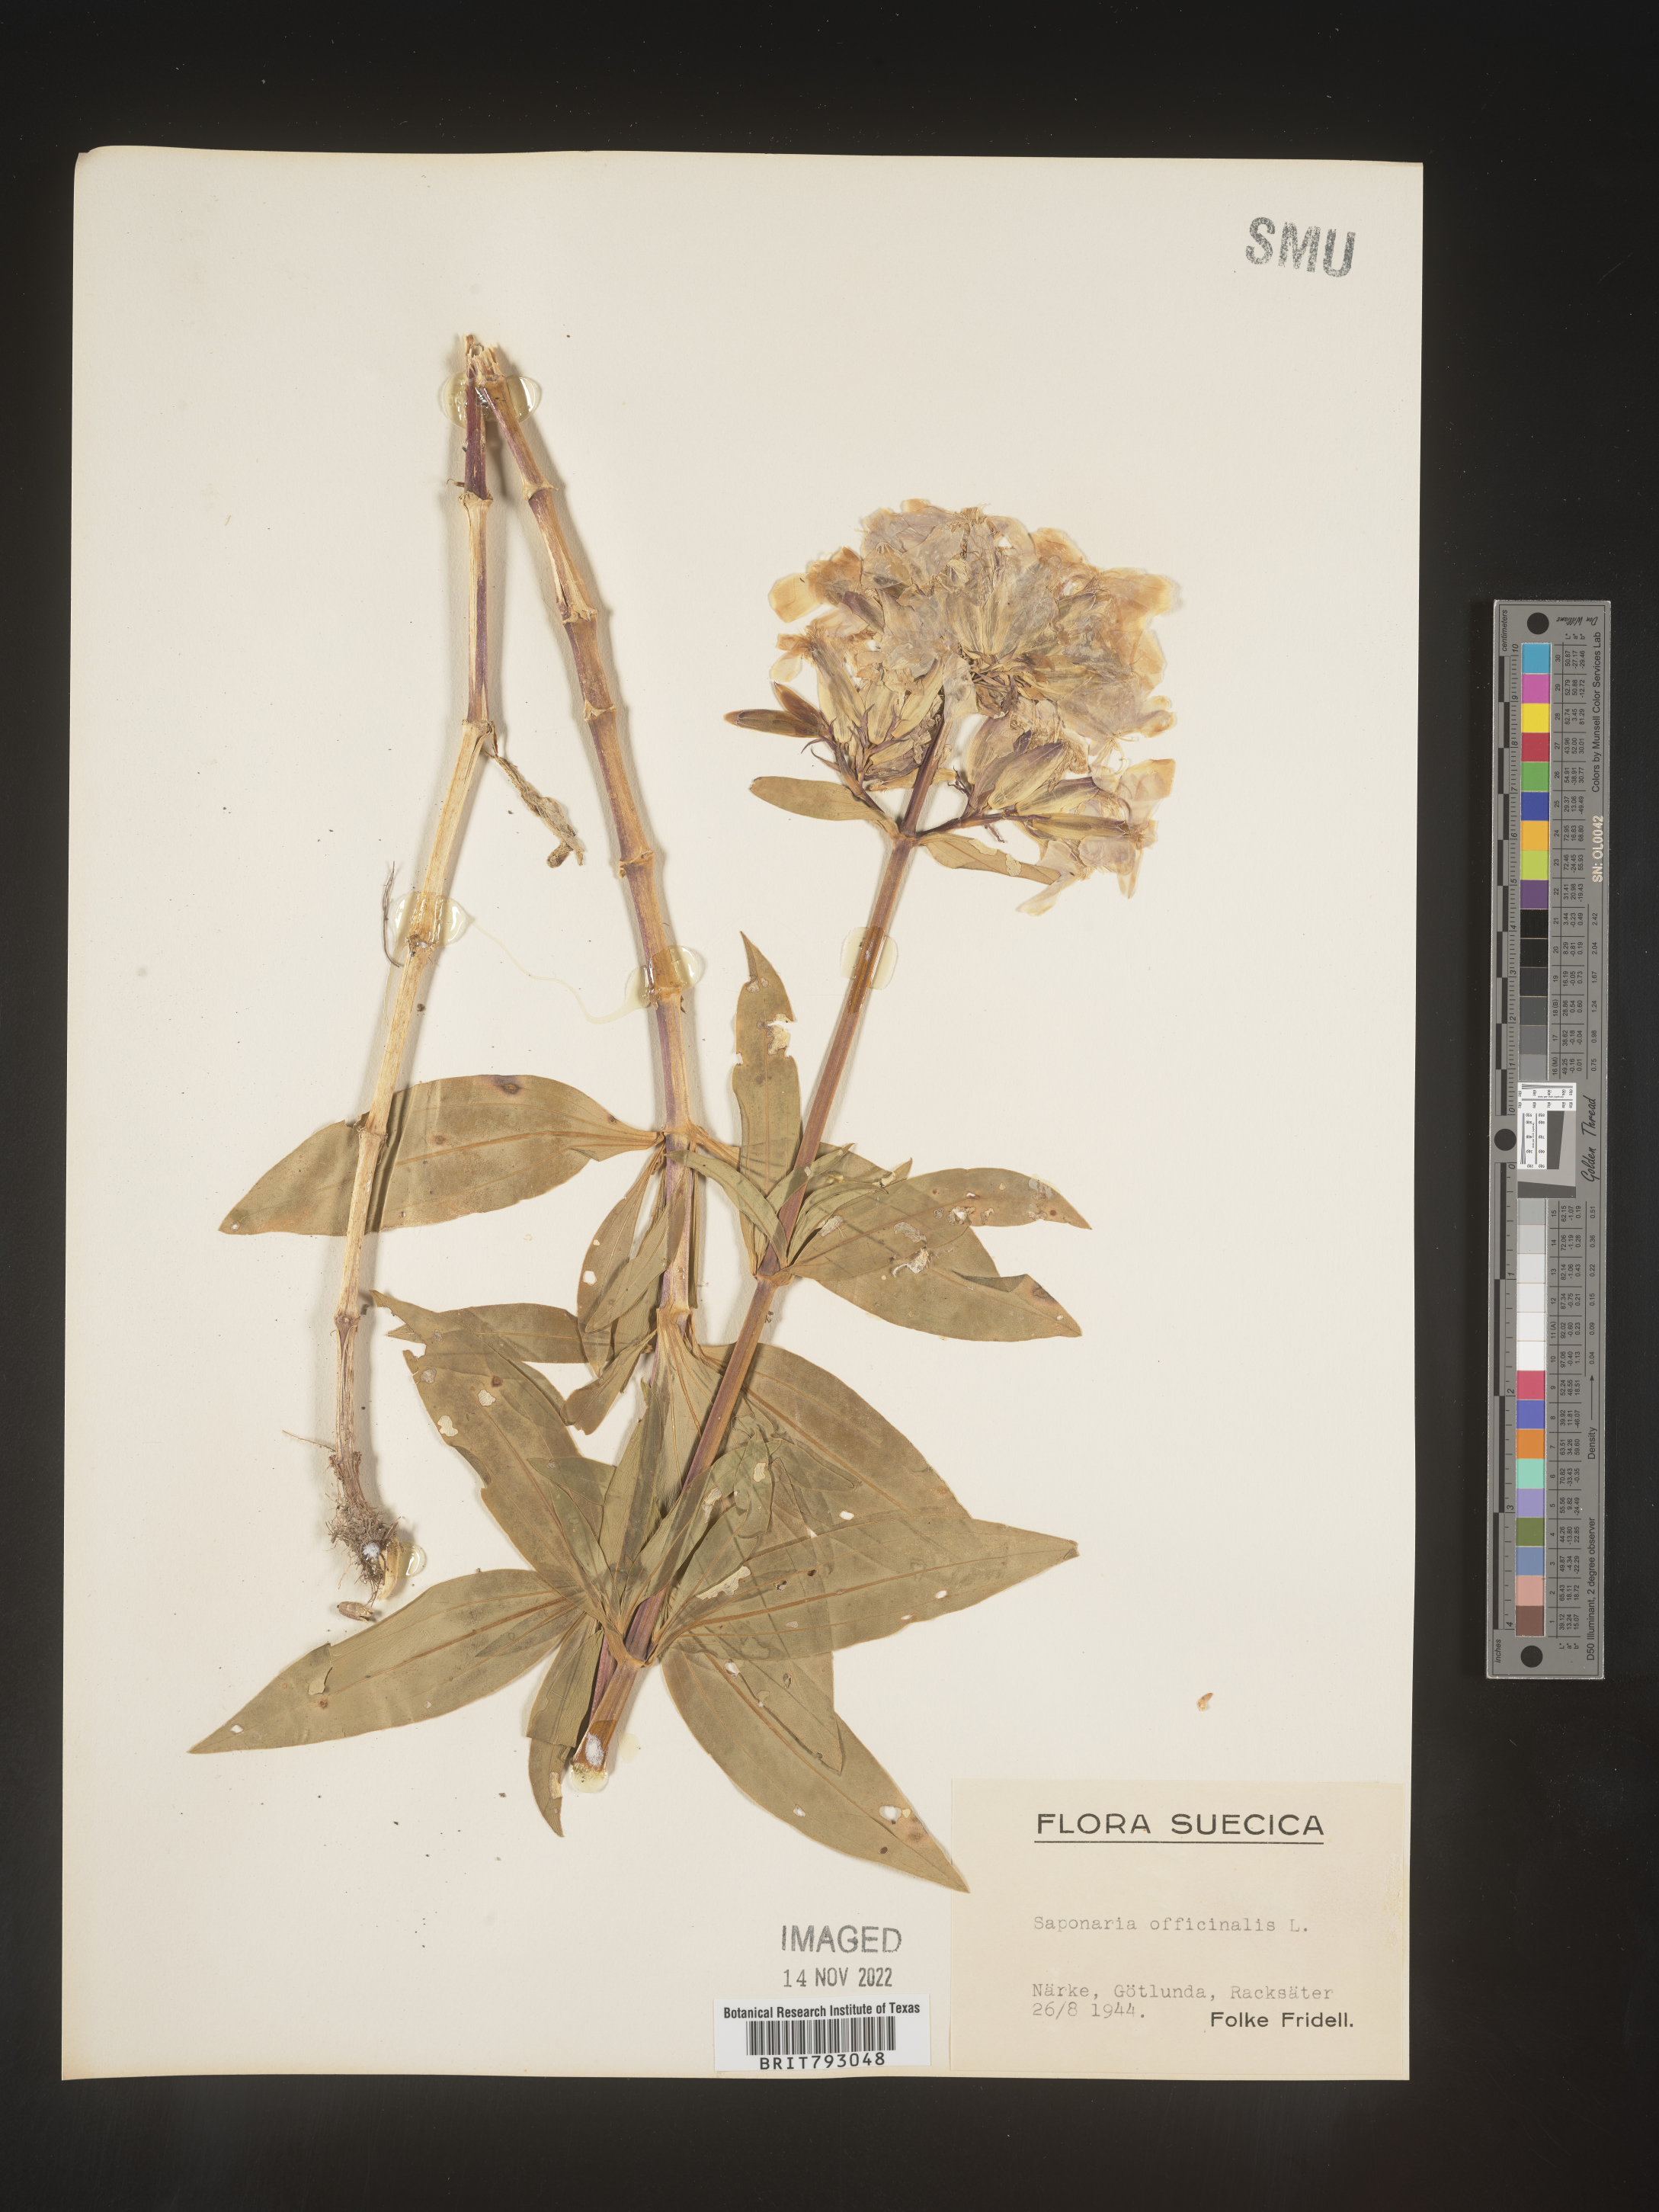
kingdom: Plantae
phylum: Tracheophyta
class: Magnoliopsida
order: Caryophyllales
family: Caryophyllaceae
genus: Saponaria
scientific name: Saponaria
